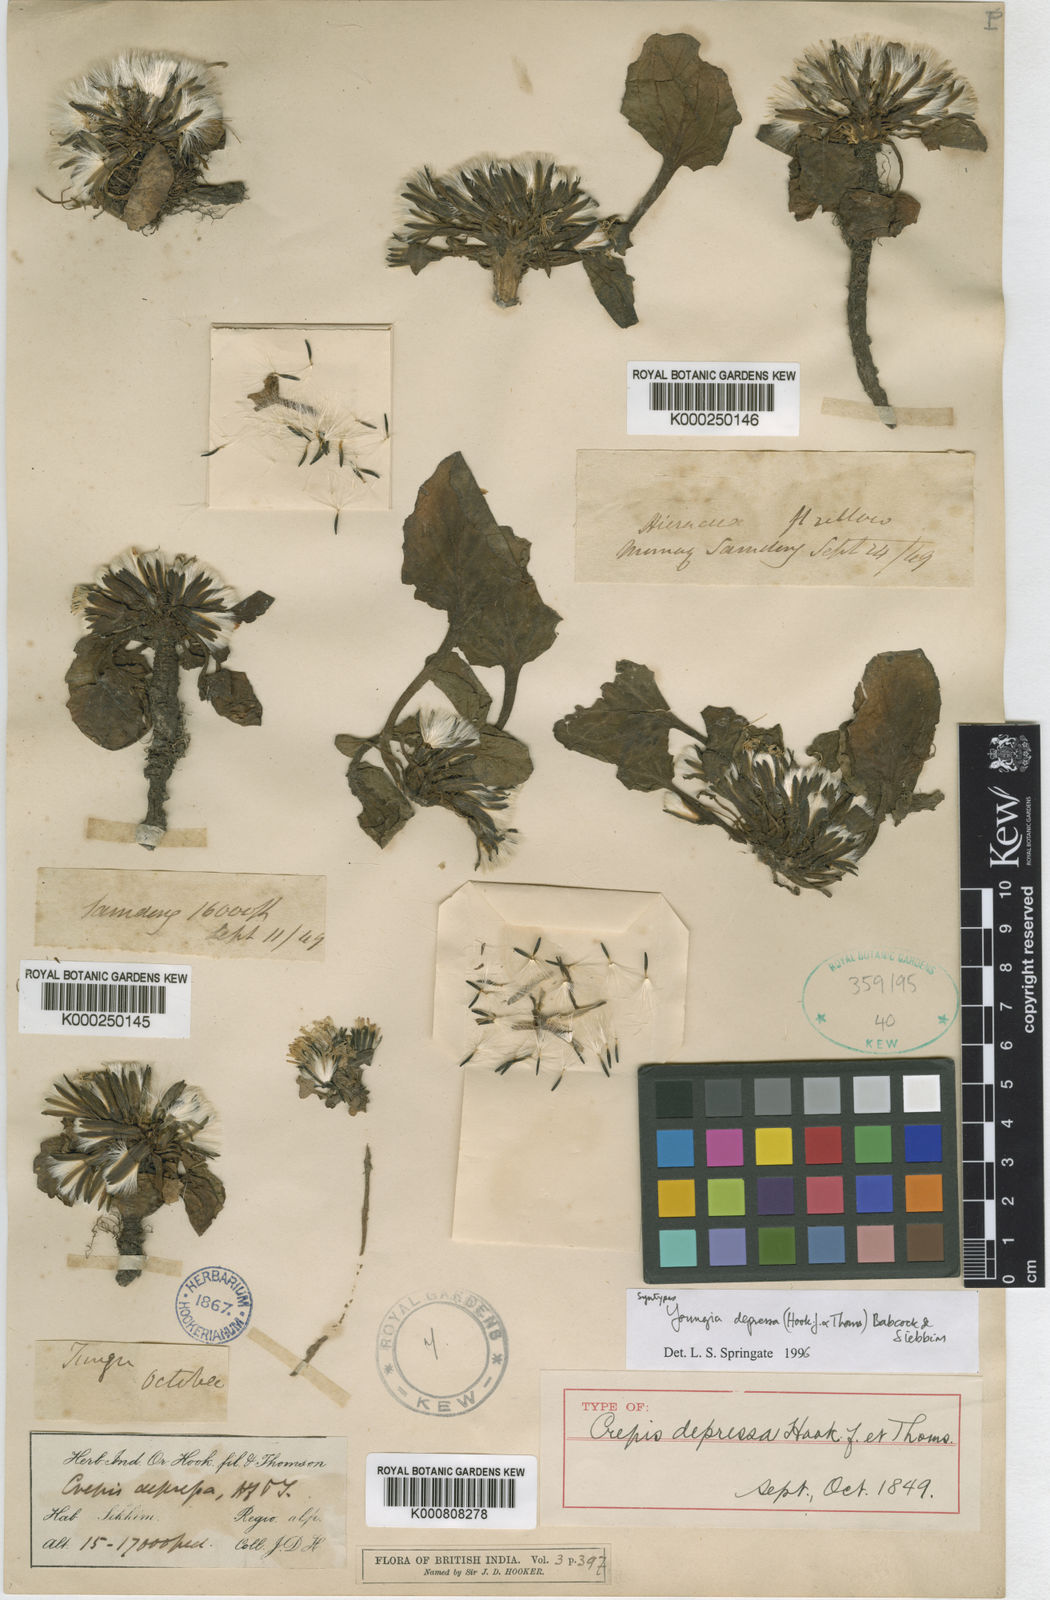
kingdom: Plantae
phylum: Tracheophyta
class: Magnoliopsida
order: Asterales
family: Asteraceae
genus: Soroseris
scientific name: Soroseris depressa
